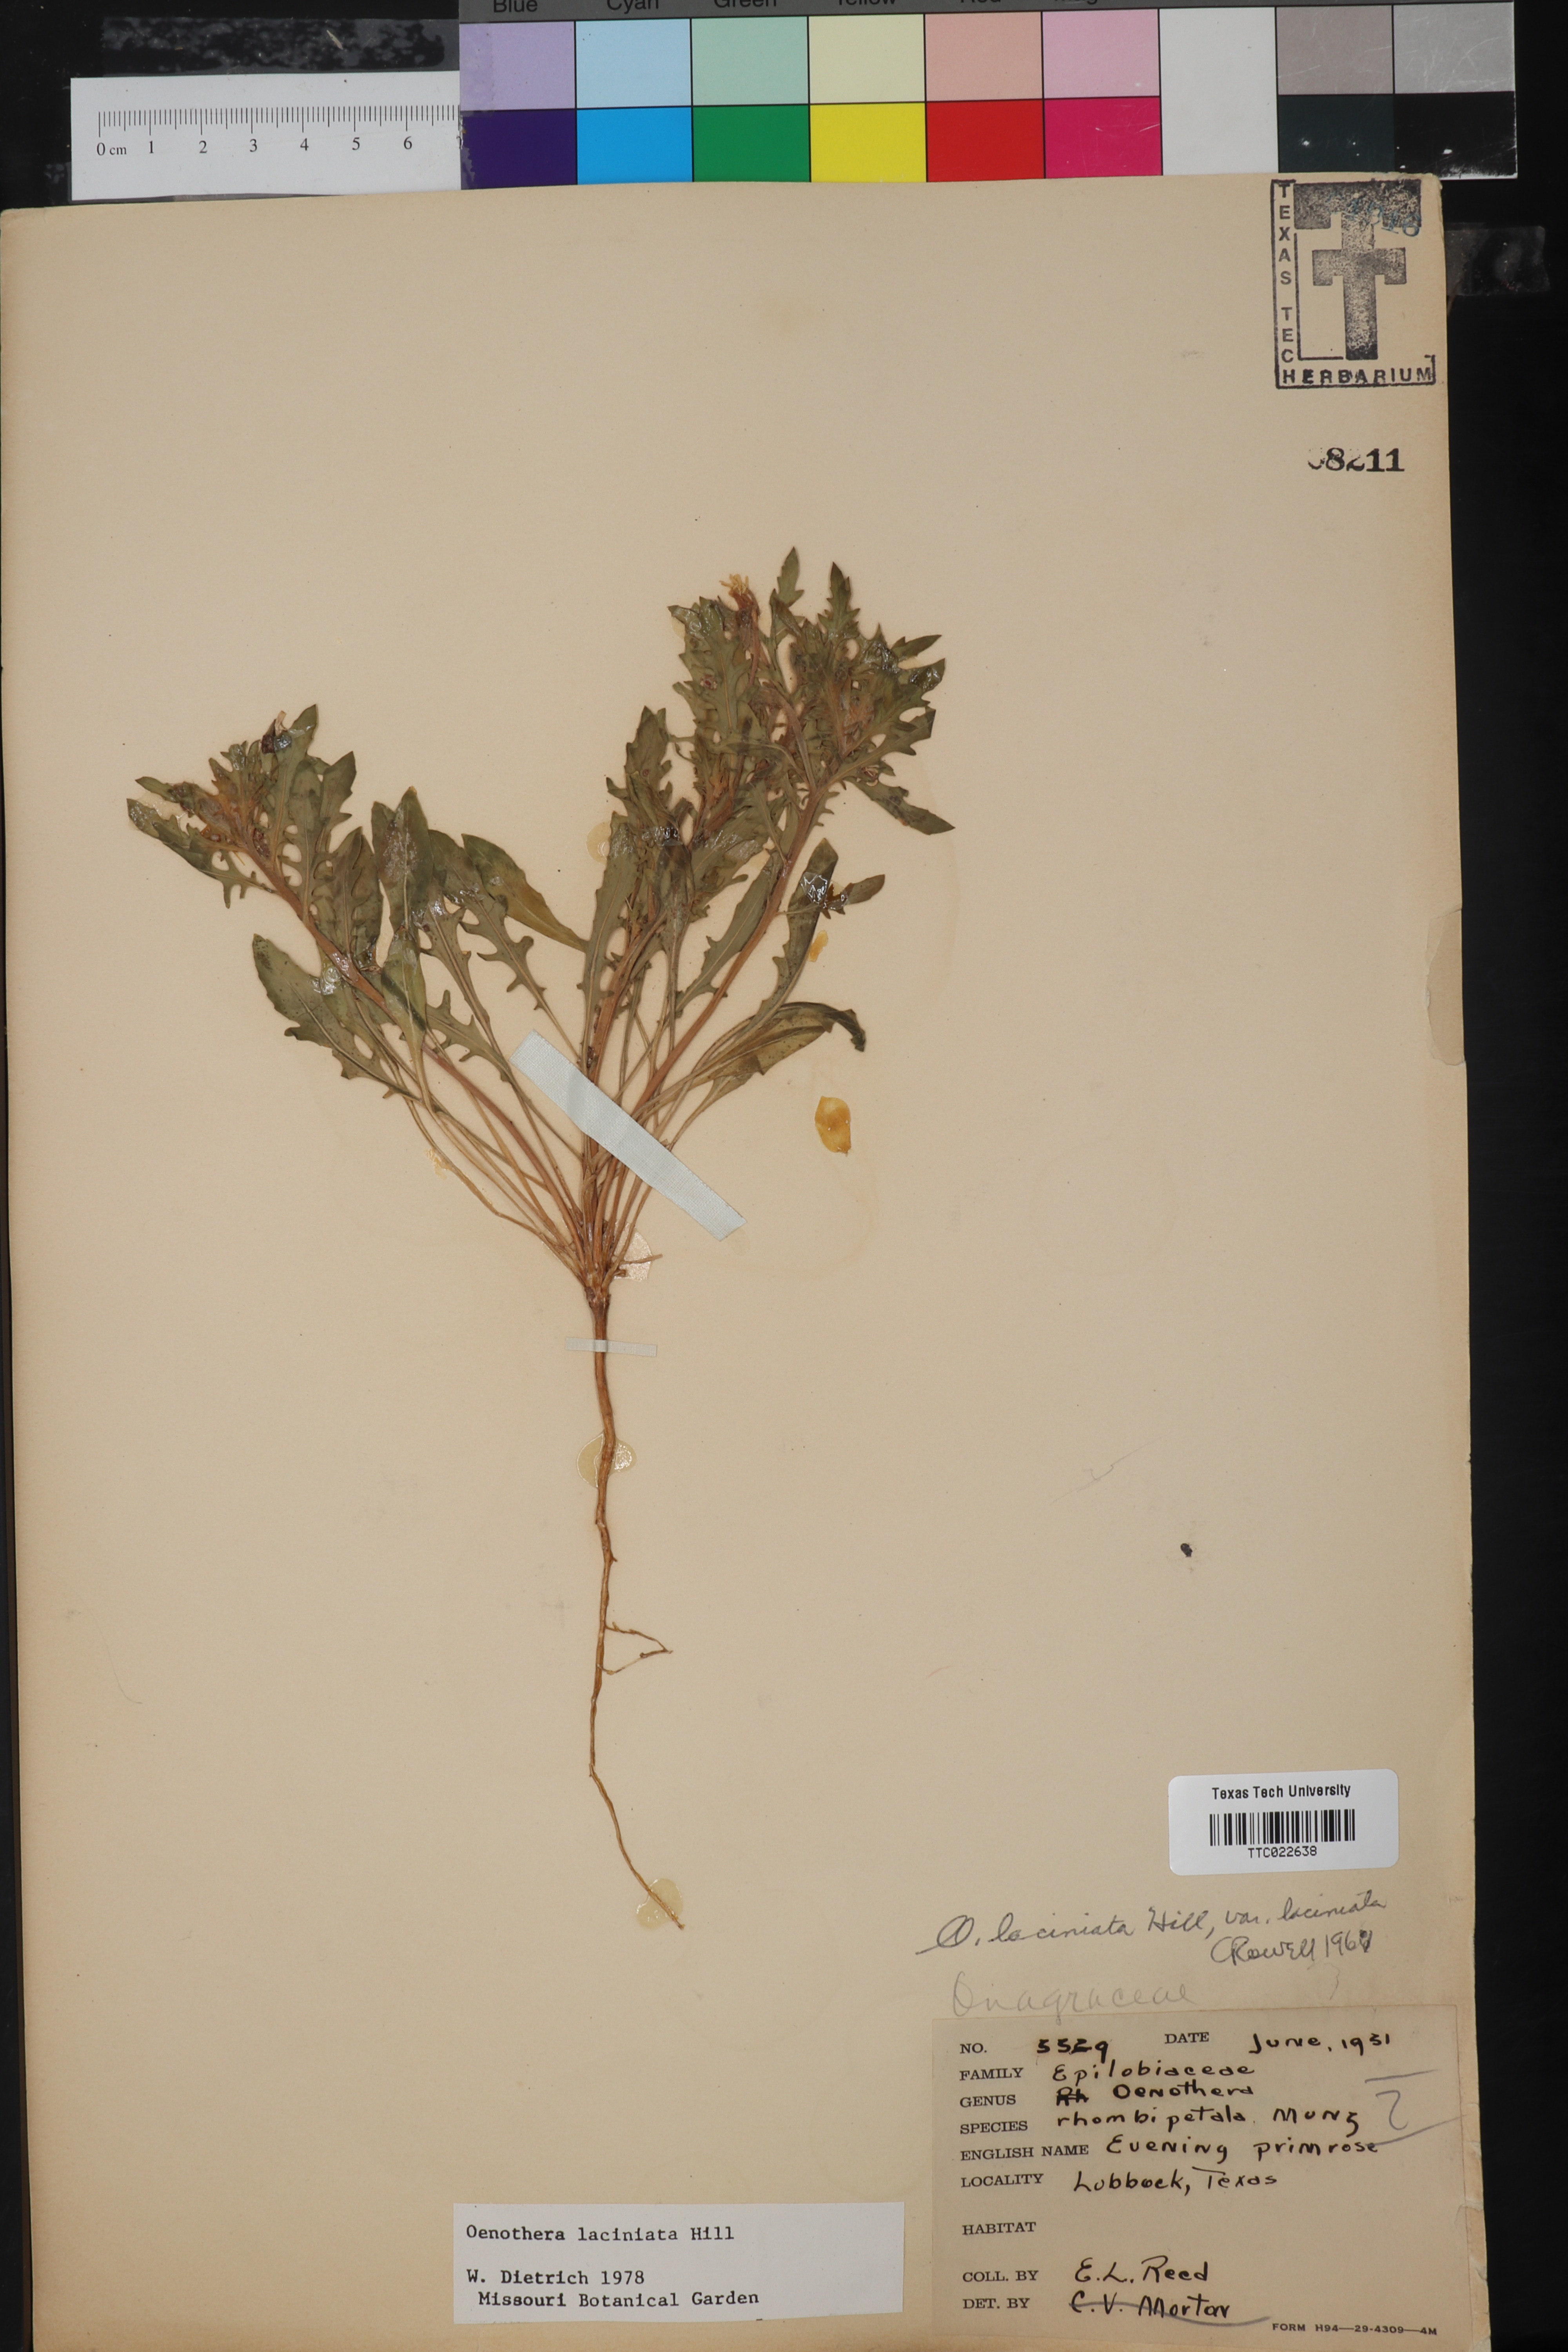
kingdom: Plantae
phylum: Tracheophyta
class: Magnoliopsida
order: Myrtales
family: Onagraceae
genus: Oenothera
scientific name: Oenothera laciniata
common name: Cut-leaved evening-primrose
